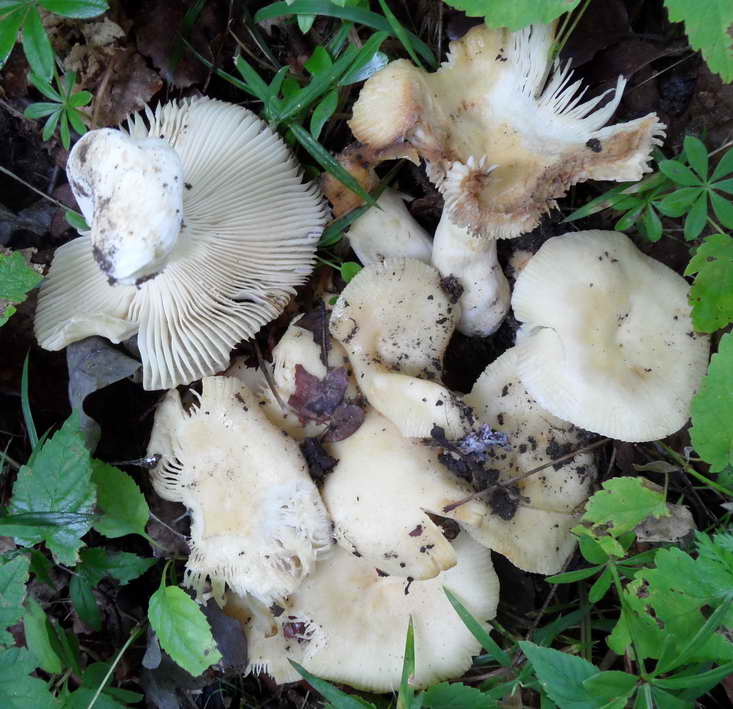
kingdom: Fungi
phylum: Basidiomycota
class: Agaricomycetes
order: Russulales
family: Russulaceae
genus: Russula
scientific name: Russula farinipes
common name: gul kam-skørhat
